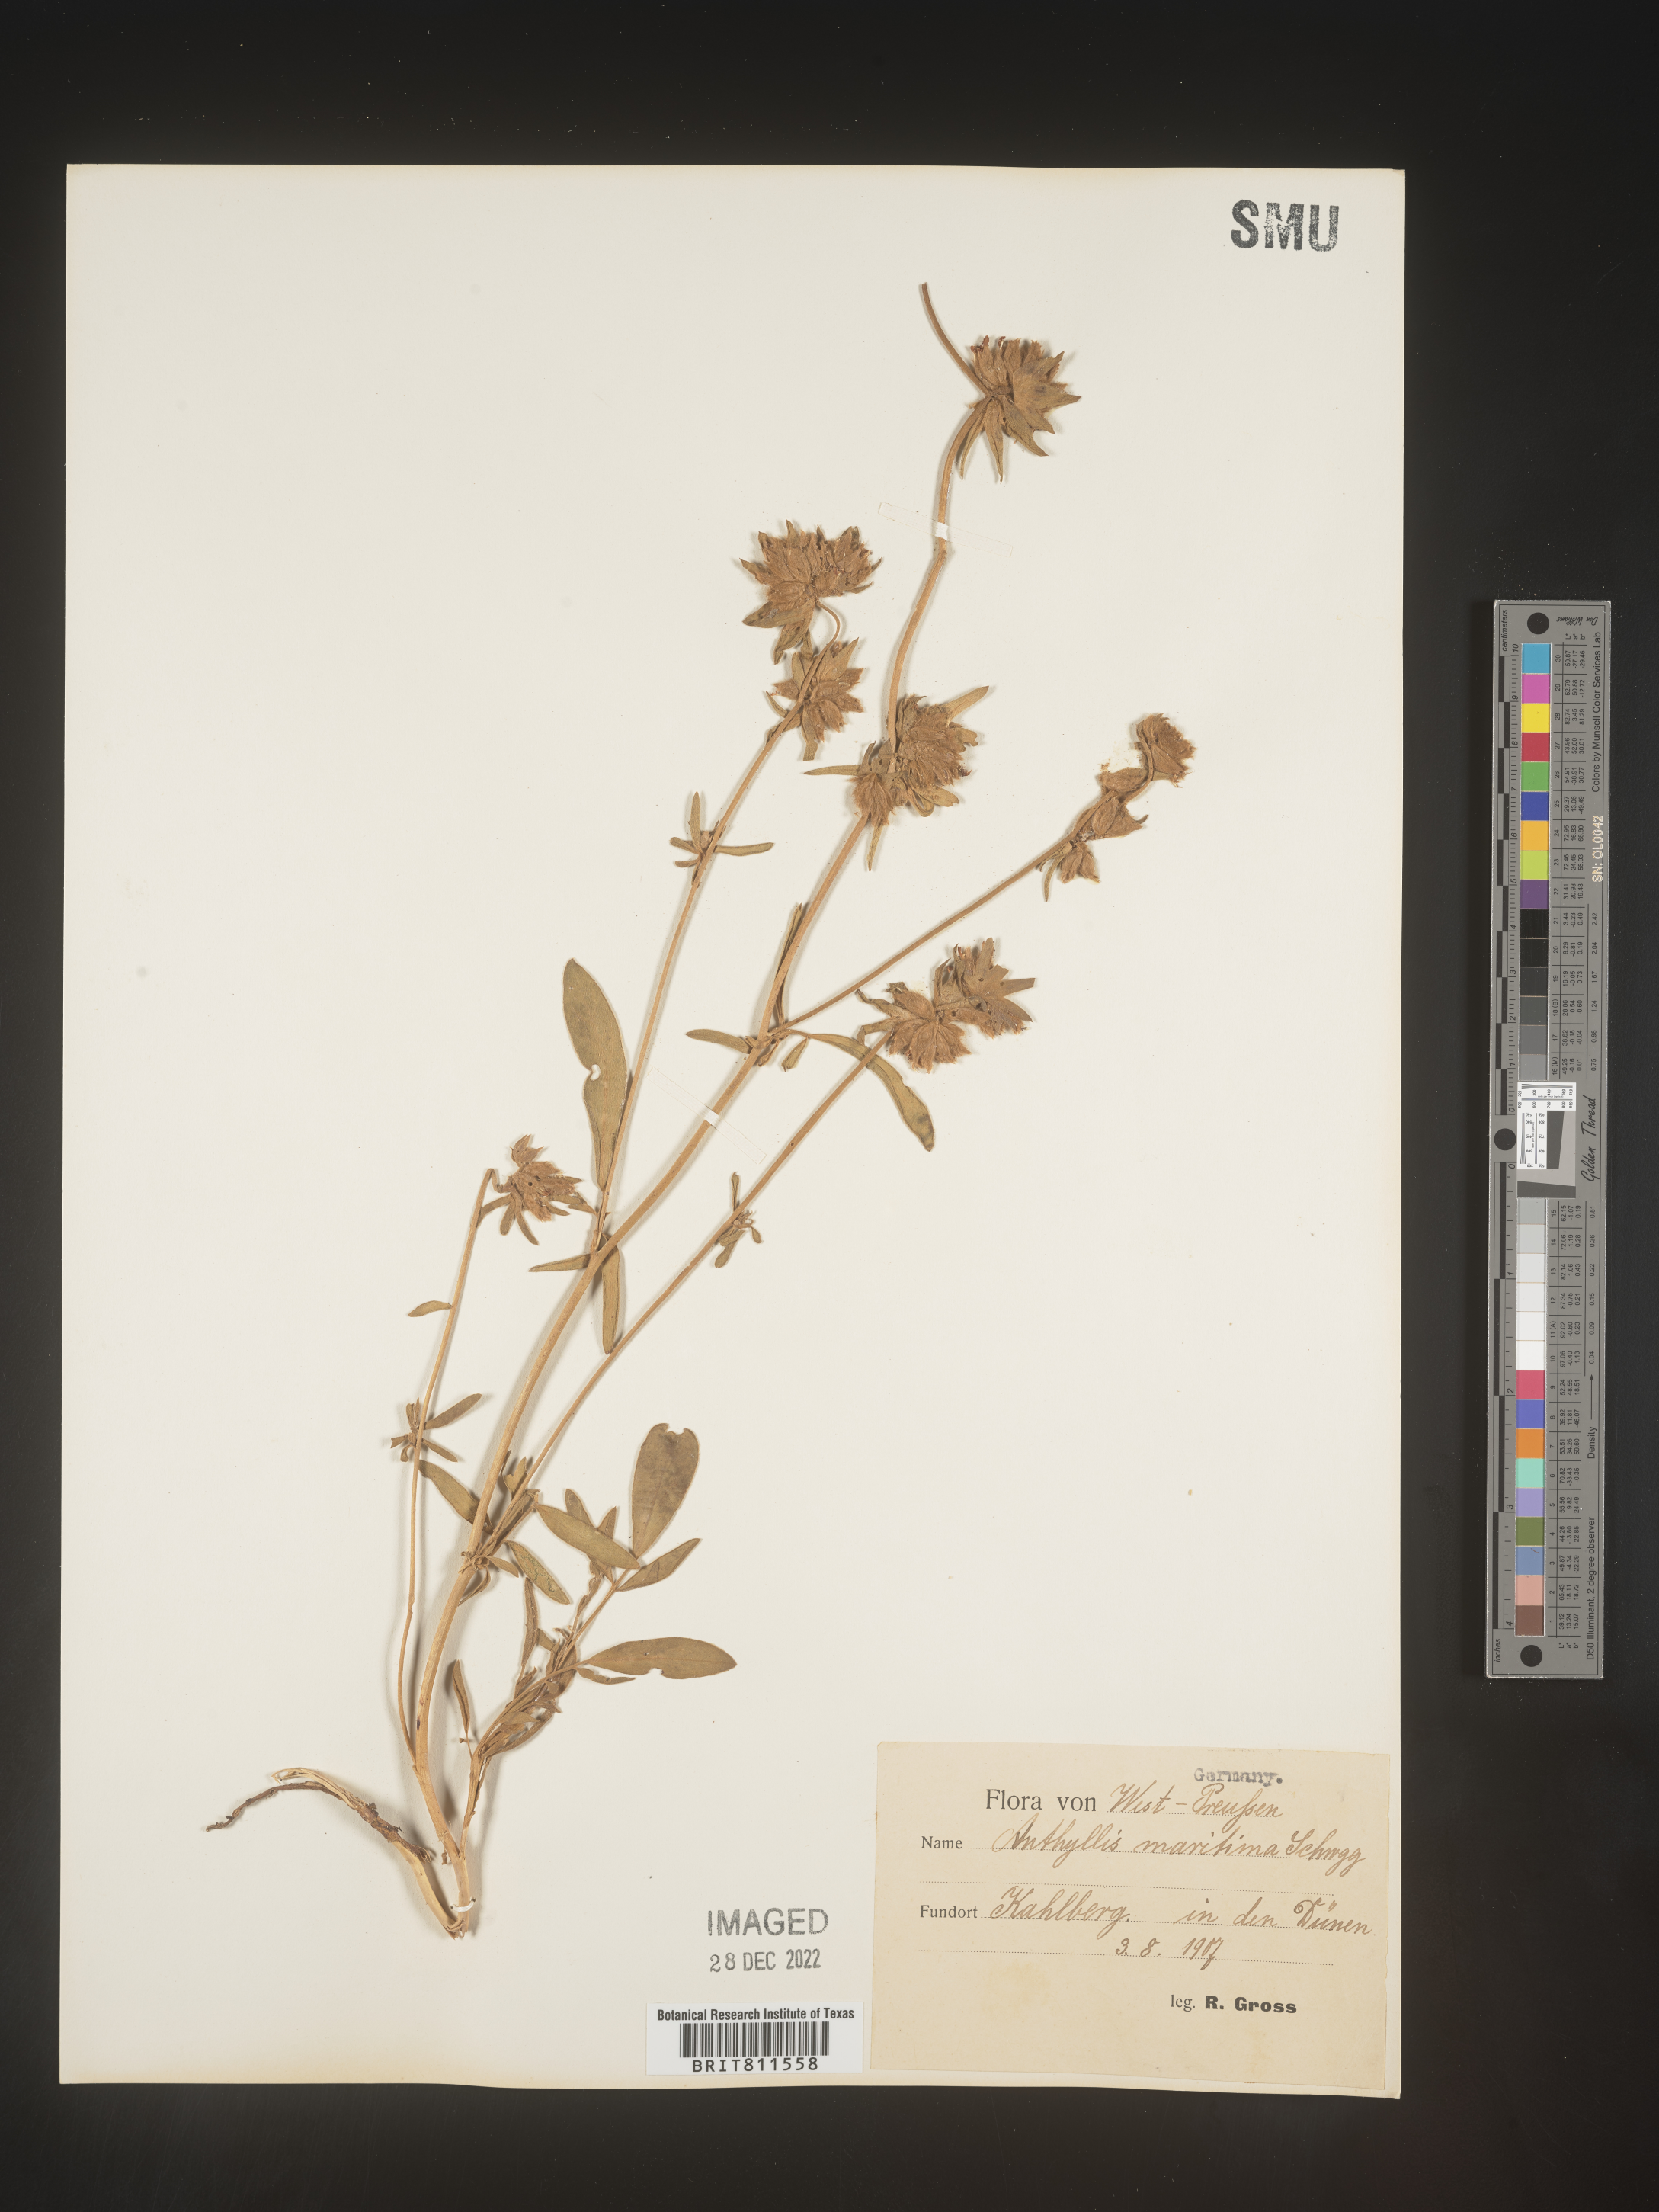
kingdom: Plantae
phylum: Tracheophyta
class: Magnoliopsida
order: Fabales
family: Fabaceae
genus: Anthyllis
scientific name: Anthyllis
